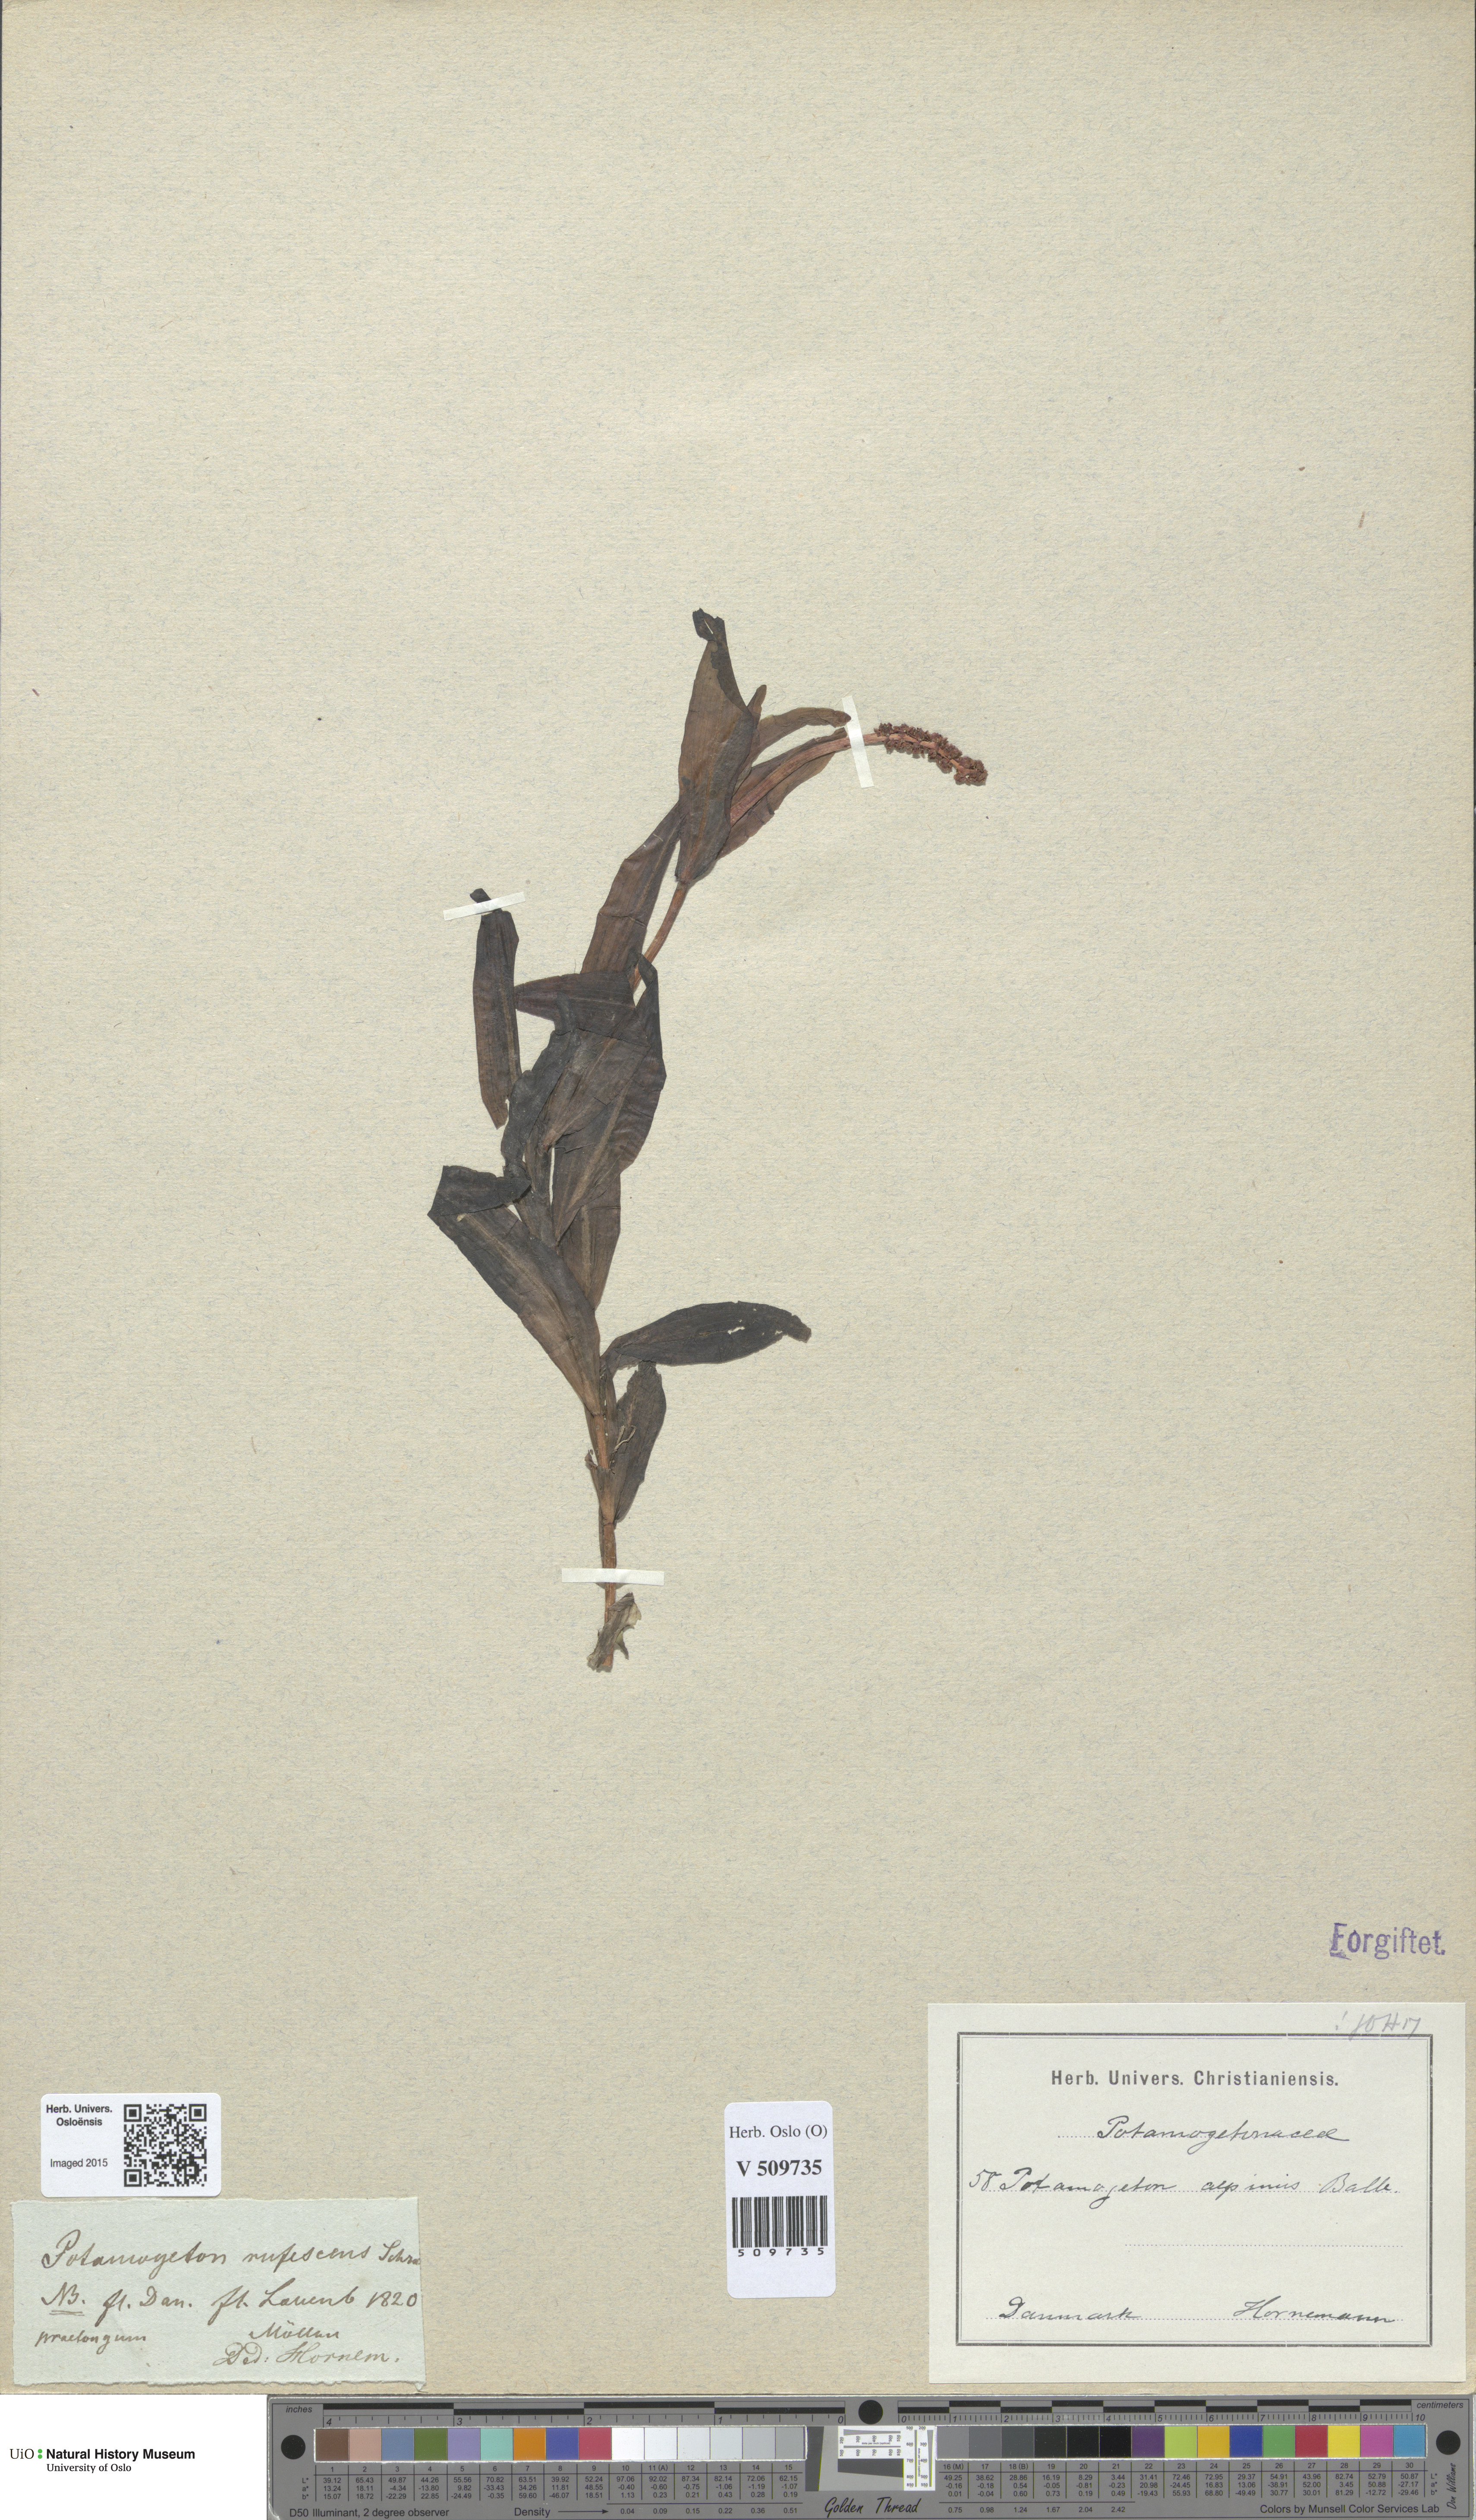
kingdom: Plantae
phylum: Tracheophyta
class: Liliopsida
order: Alismatales
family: Potamogetonaceae
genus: Potamogeton
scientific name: Potamogeton alpinus
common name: Red pondweed
